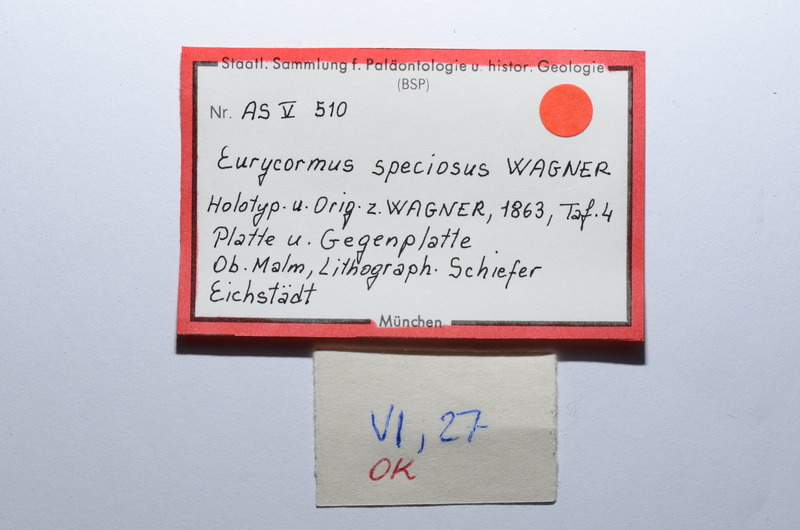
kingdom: Animalia
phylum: Chordata
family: Eurycormidae
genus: Eurycormus
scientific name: Eurycormus speciosus
